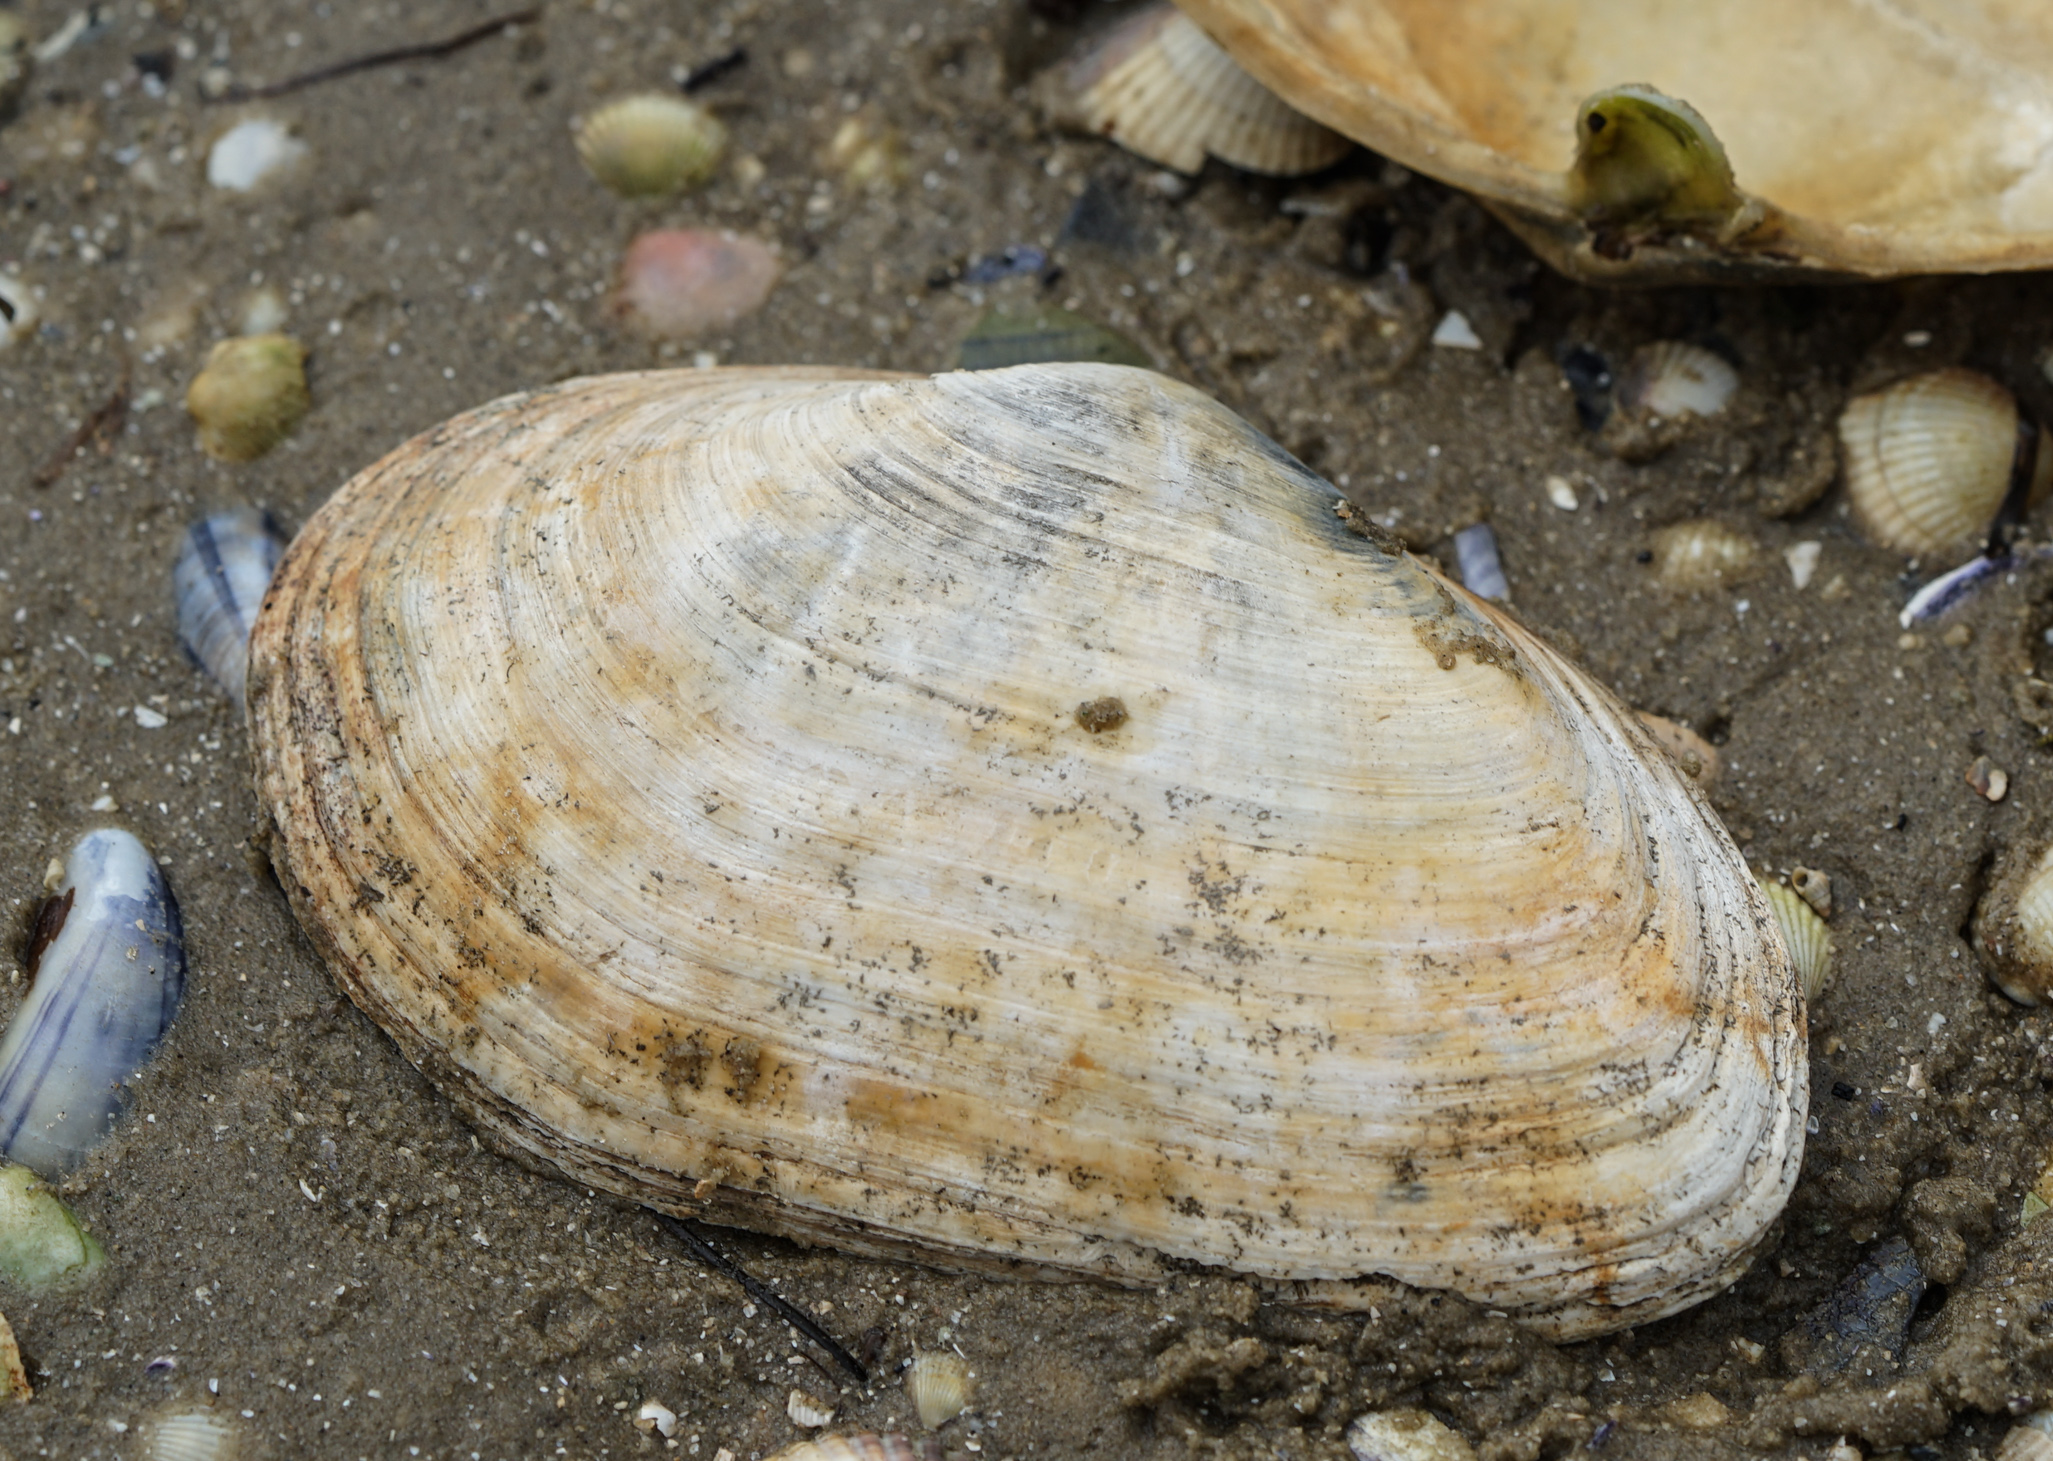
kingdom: Animalia
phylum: Mollusca
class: Bivalvia
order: Myida
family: Myidae
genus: Mya
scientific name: Mya arenaria
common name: Soft-shelled clam
